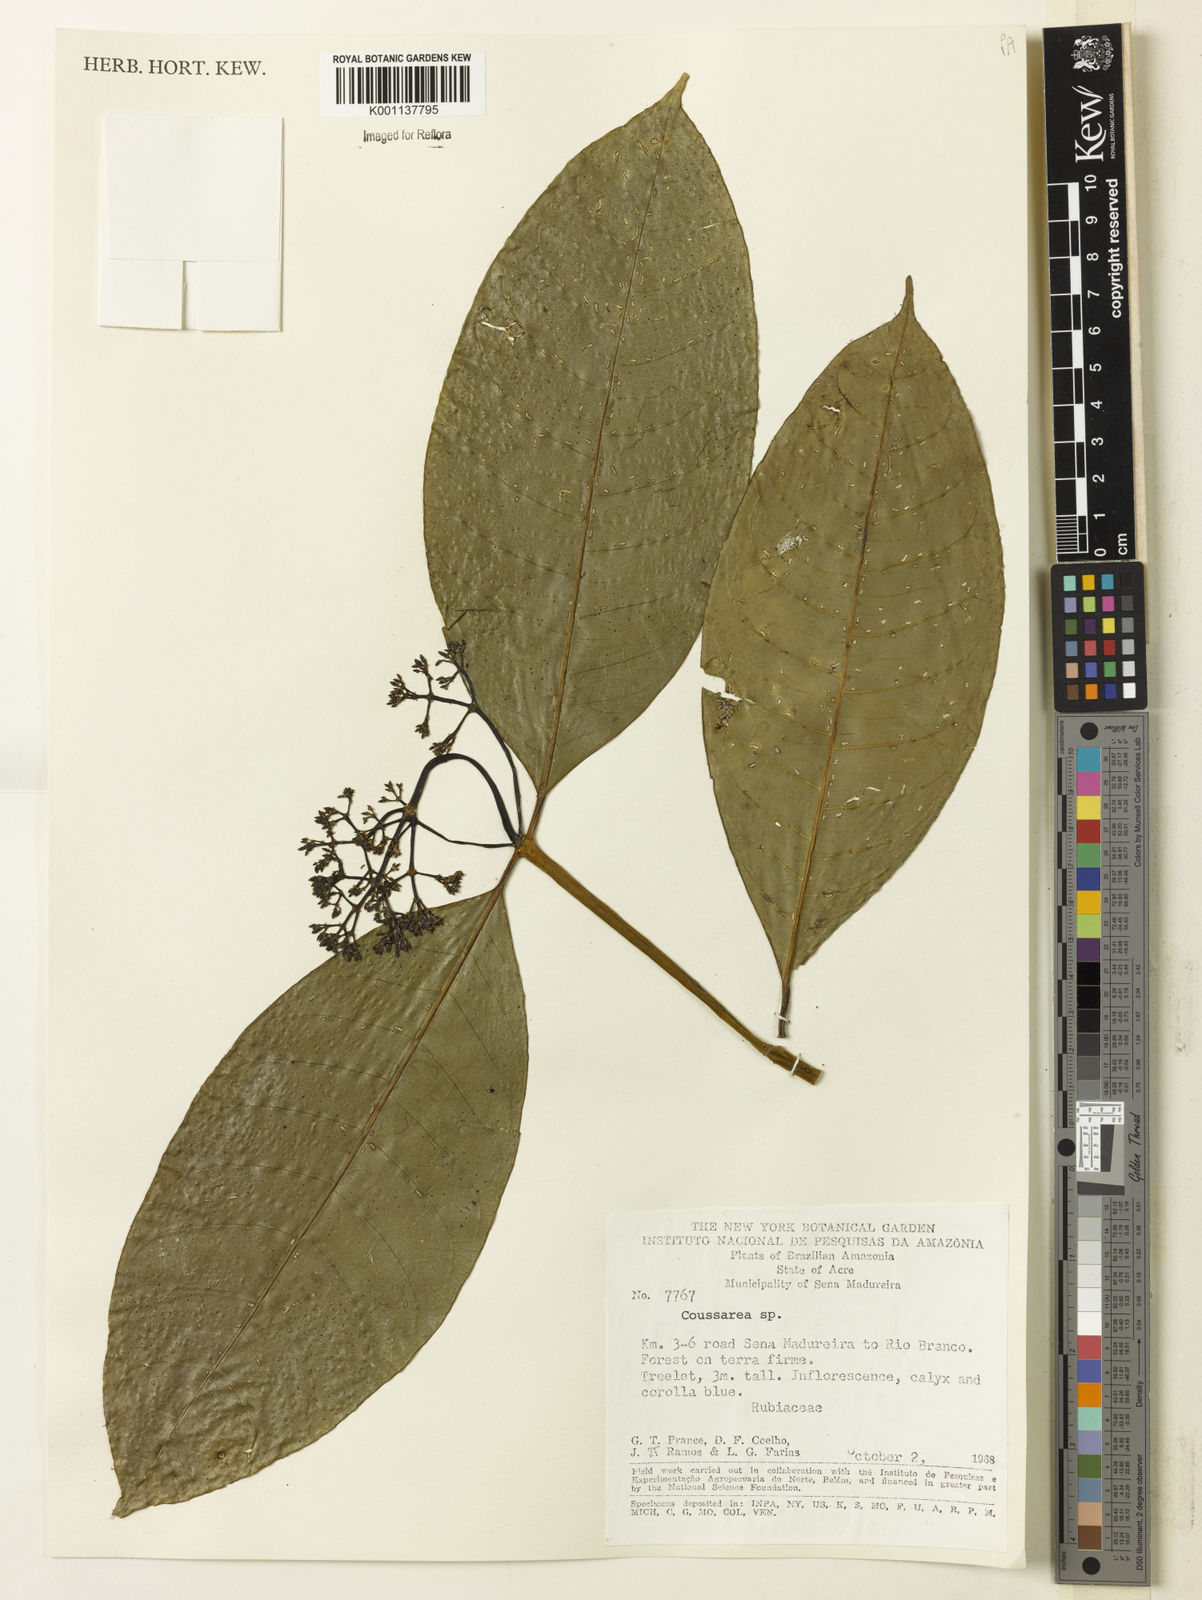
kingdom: Plantae
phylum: Tracheophyta
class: Magnoliopsida
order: Gentianales
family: Rubiaceae
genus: Coussarea
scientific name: Coussarea
